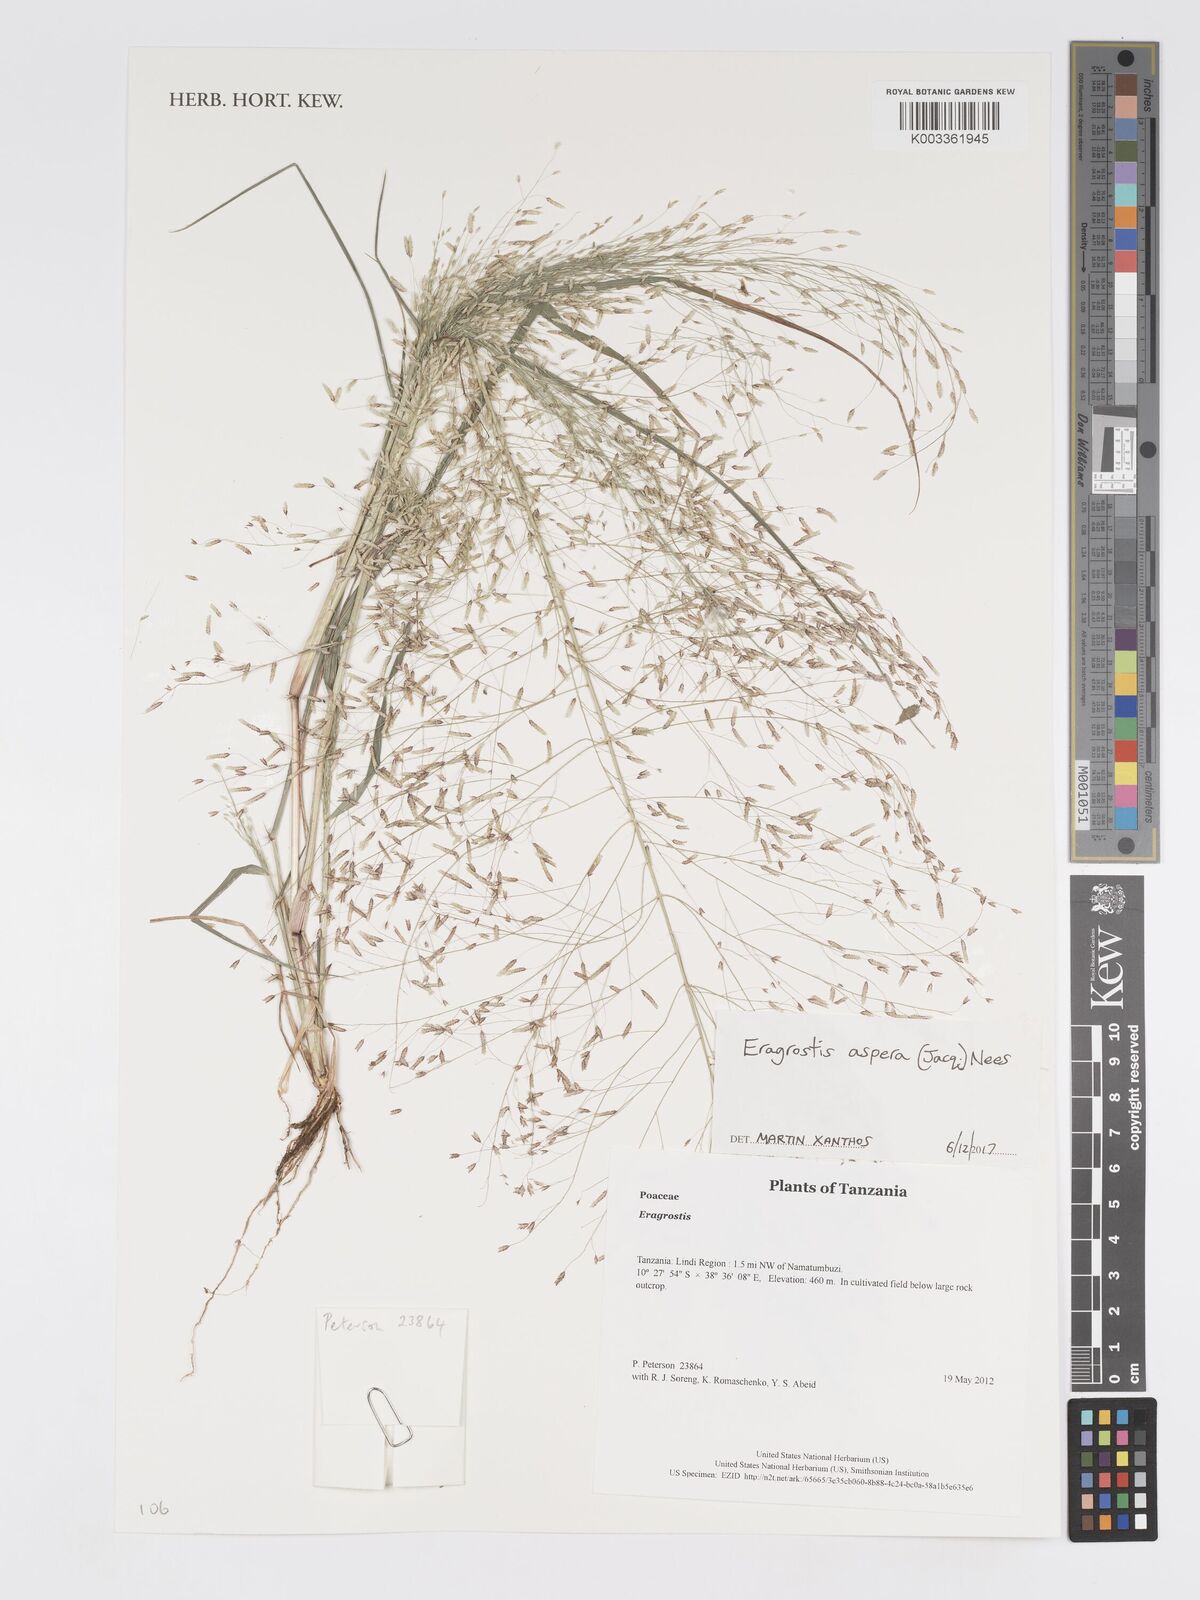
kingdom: Plantae
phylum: Tracheophyta
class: Liliopsida
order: Poales
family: Poaceae
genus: Eragrostis
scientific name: Eragrostis aspera
